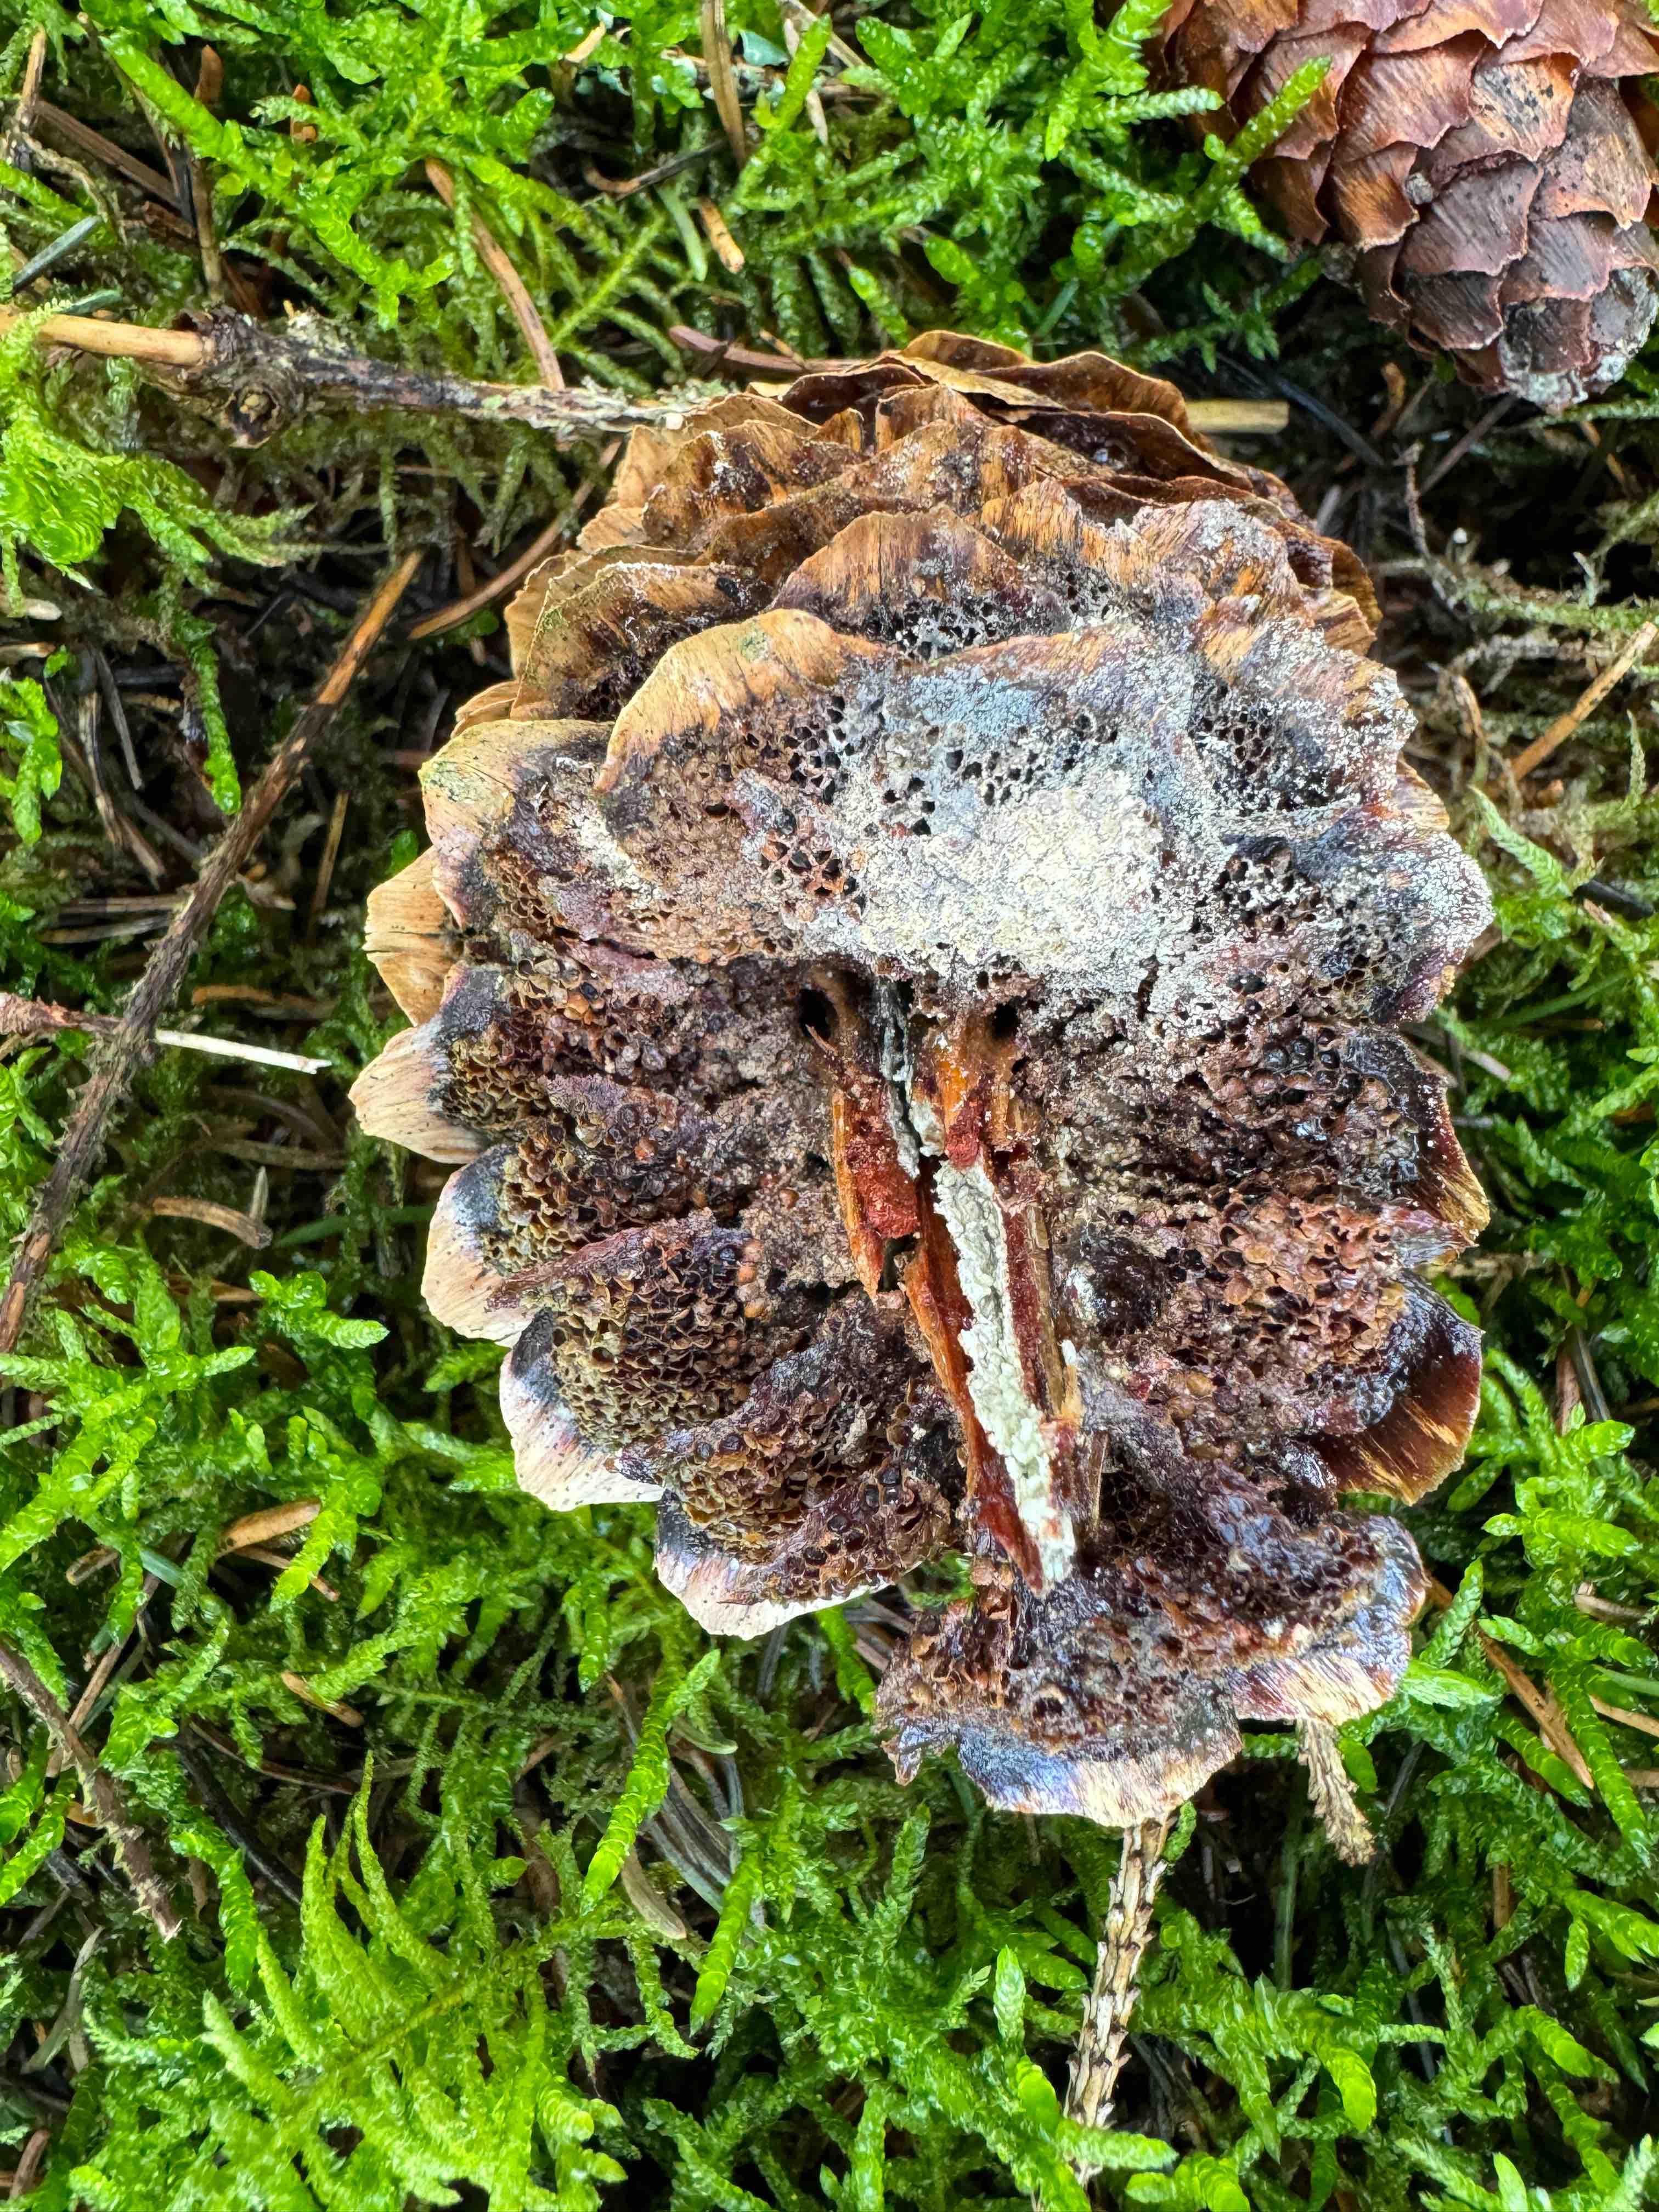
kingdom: Fungi
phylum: Basidiomycota
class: Pucciniomycetes
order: Pucciniales
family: Pucciniastraceae
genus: Thekopsora
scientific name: Thekopsora areolata
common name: grankogle-nålerust
